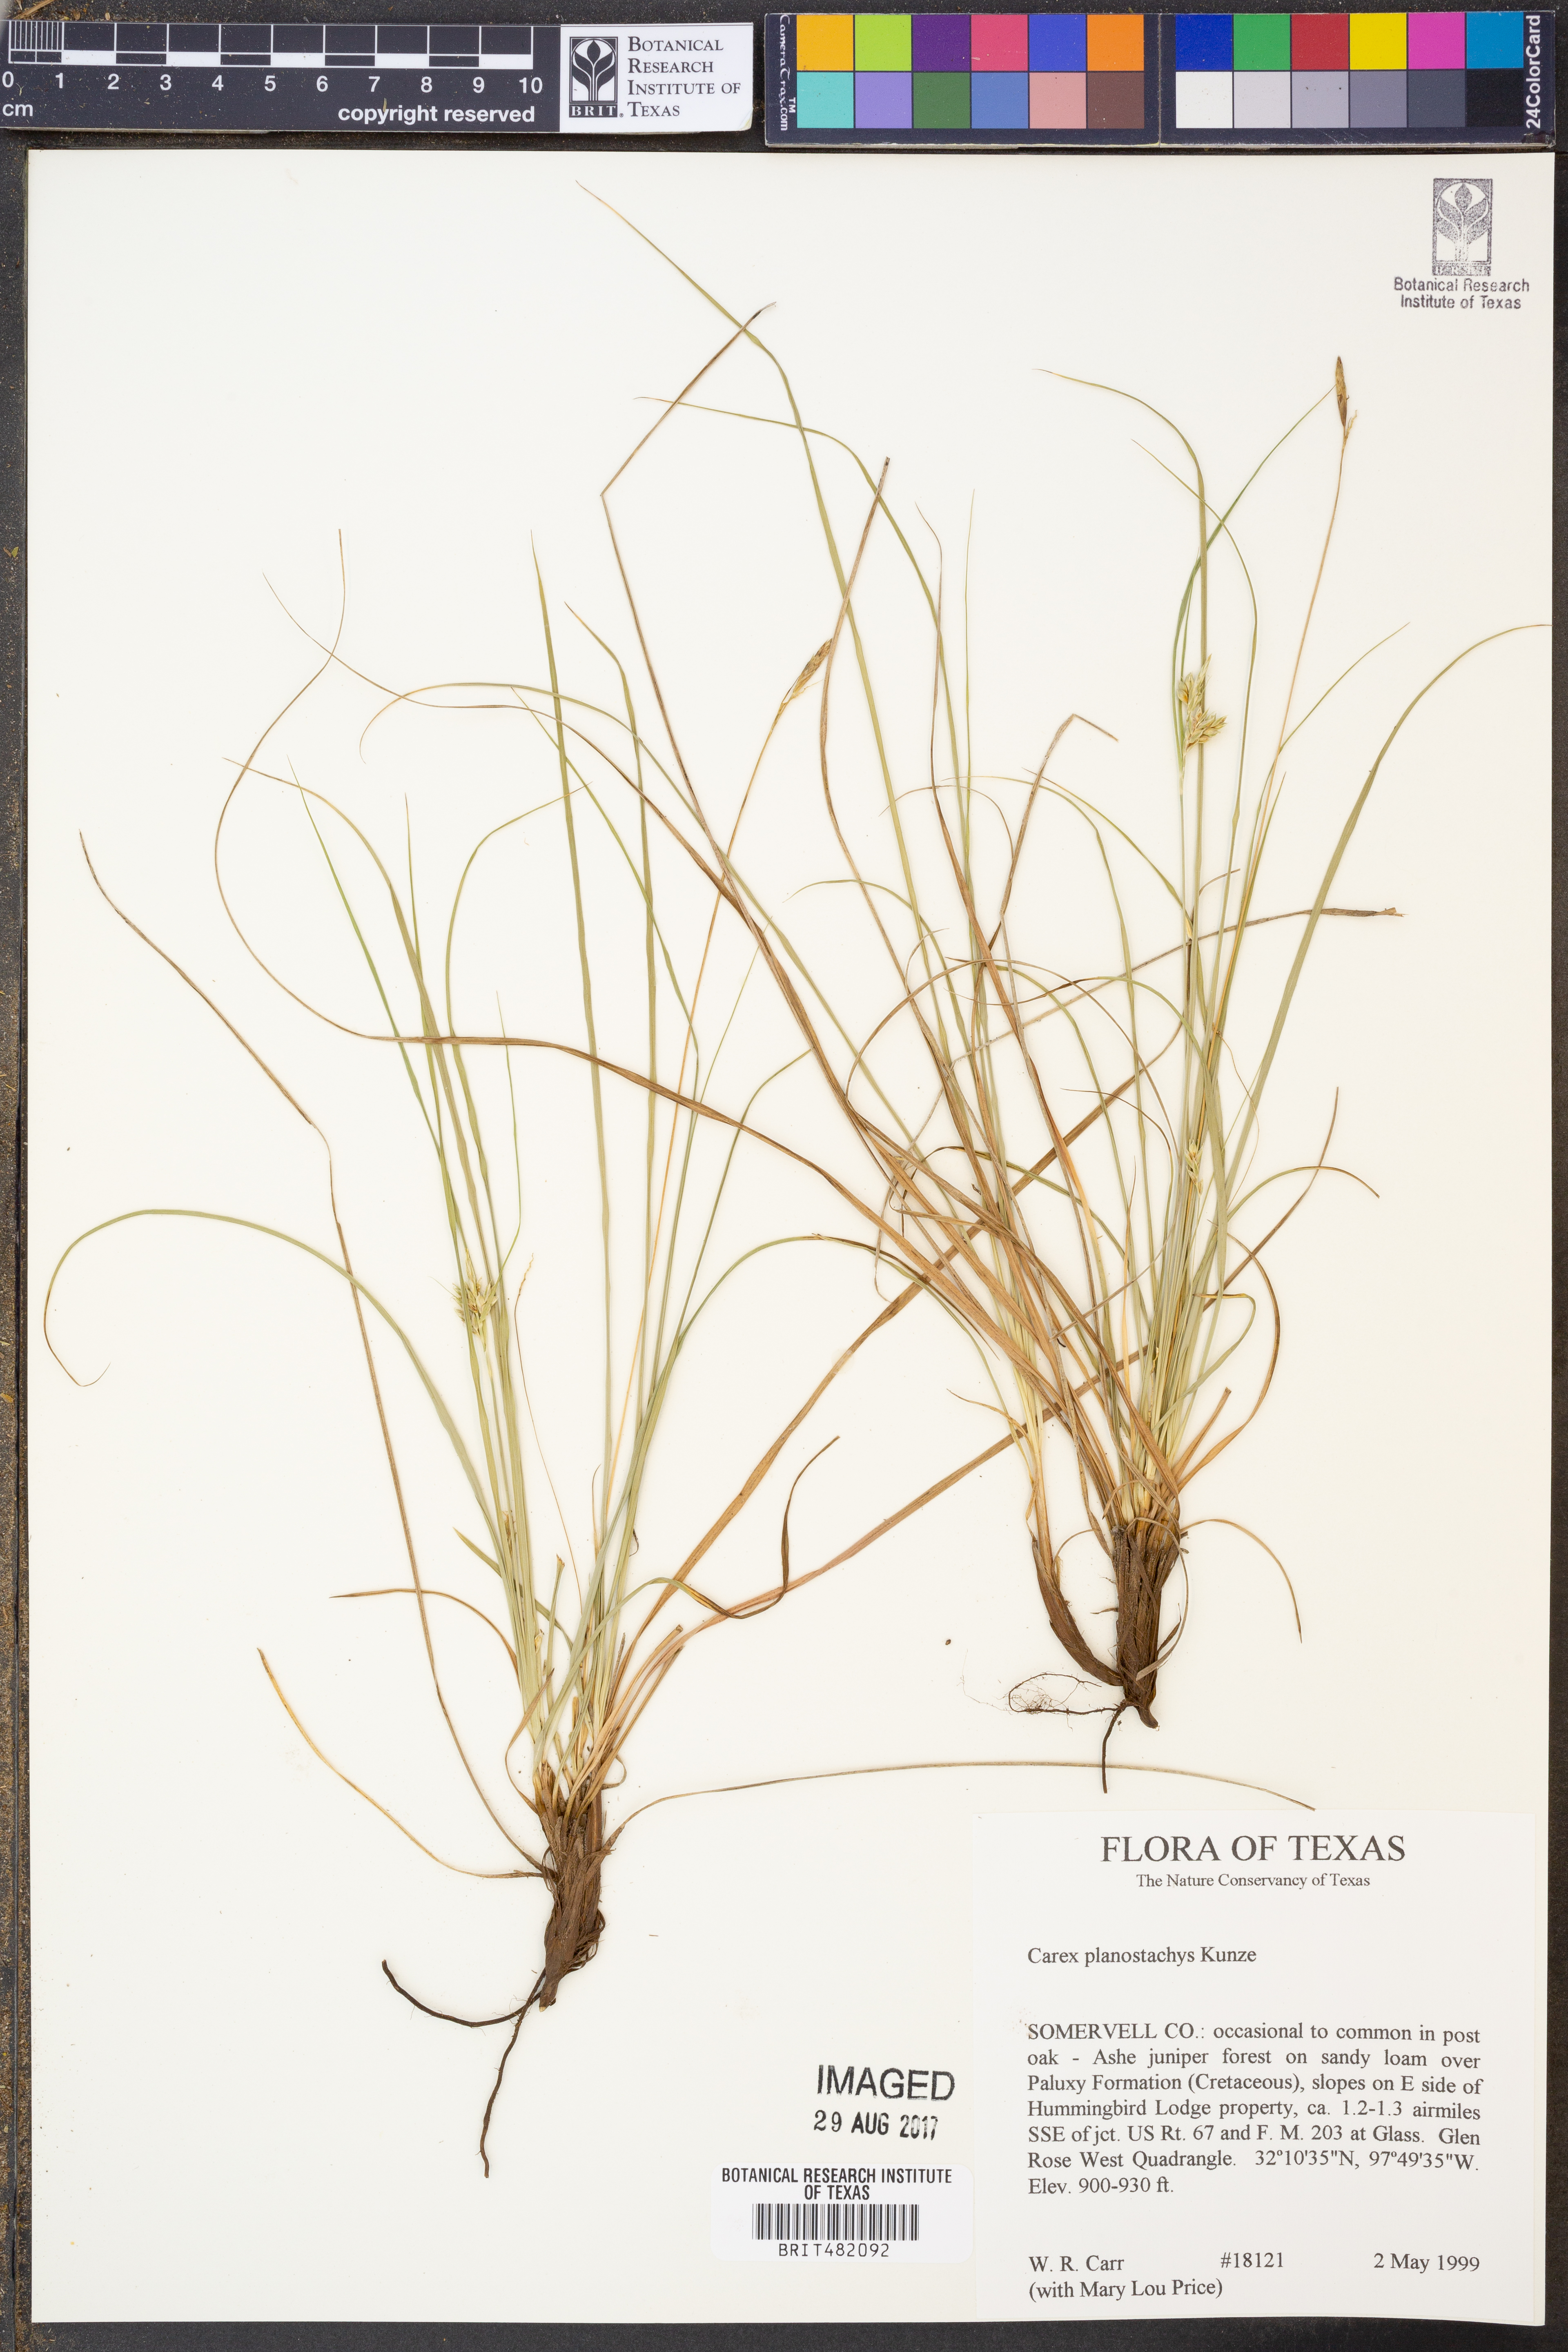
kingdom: Plantae
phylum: Tracheophyta
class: Liliopsida
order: Poales
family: Cyperaceae
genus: Carex
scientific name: Carex planostachys
